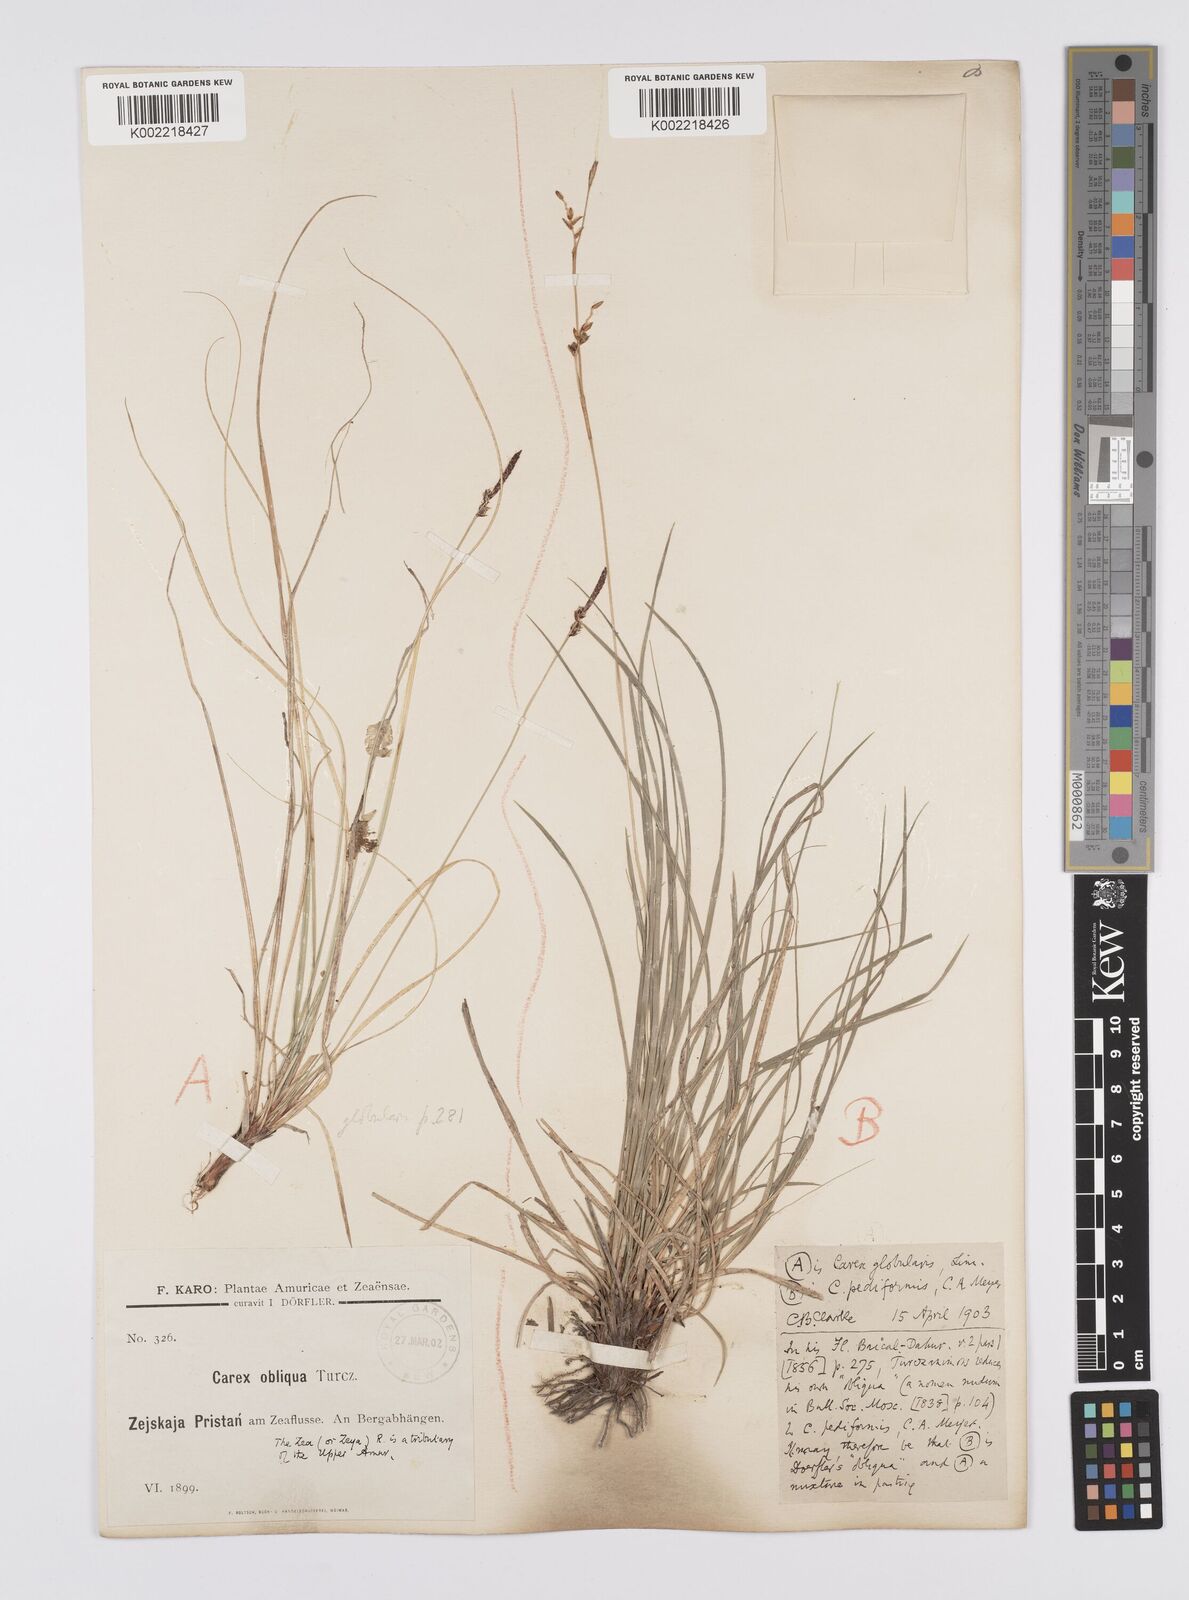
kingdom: Plantae
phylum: Tracheophyta
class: Liliopsida
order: Poales
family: Cyperaceae
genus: Carex
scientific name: Carex globularis
